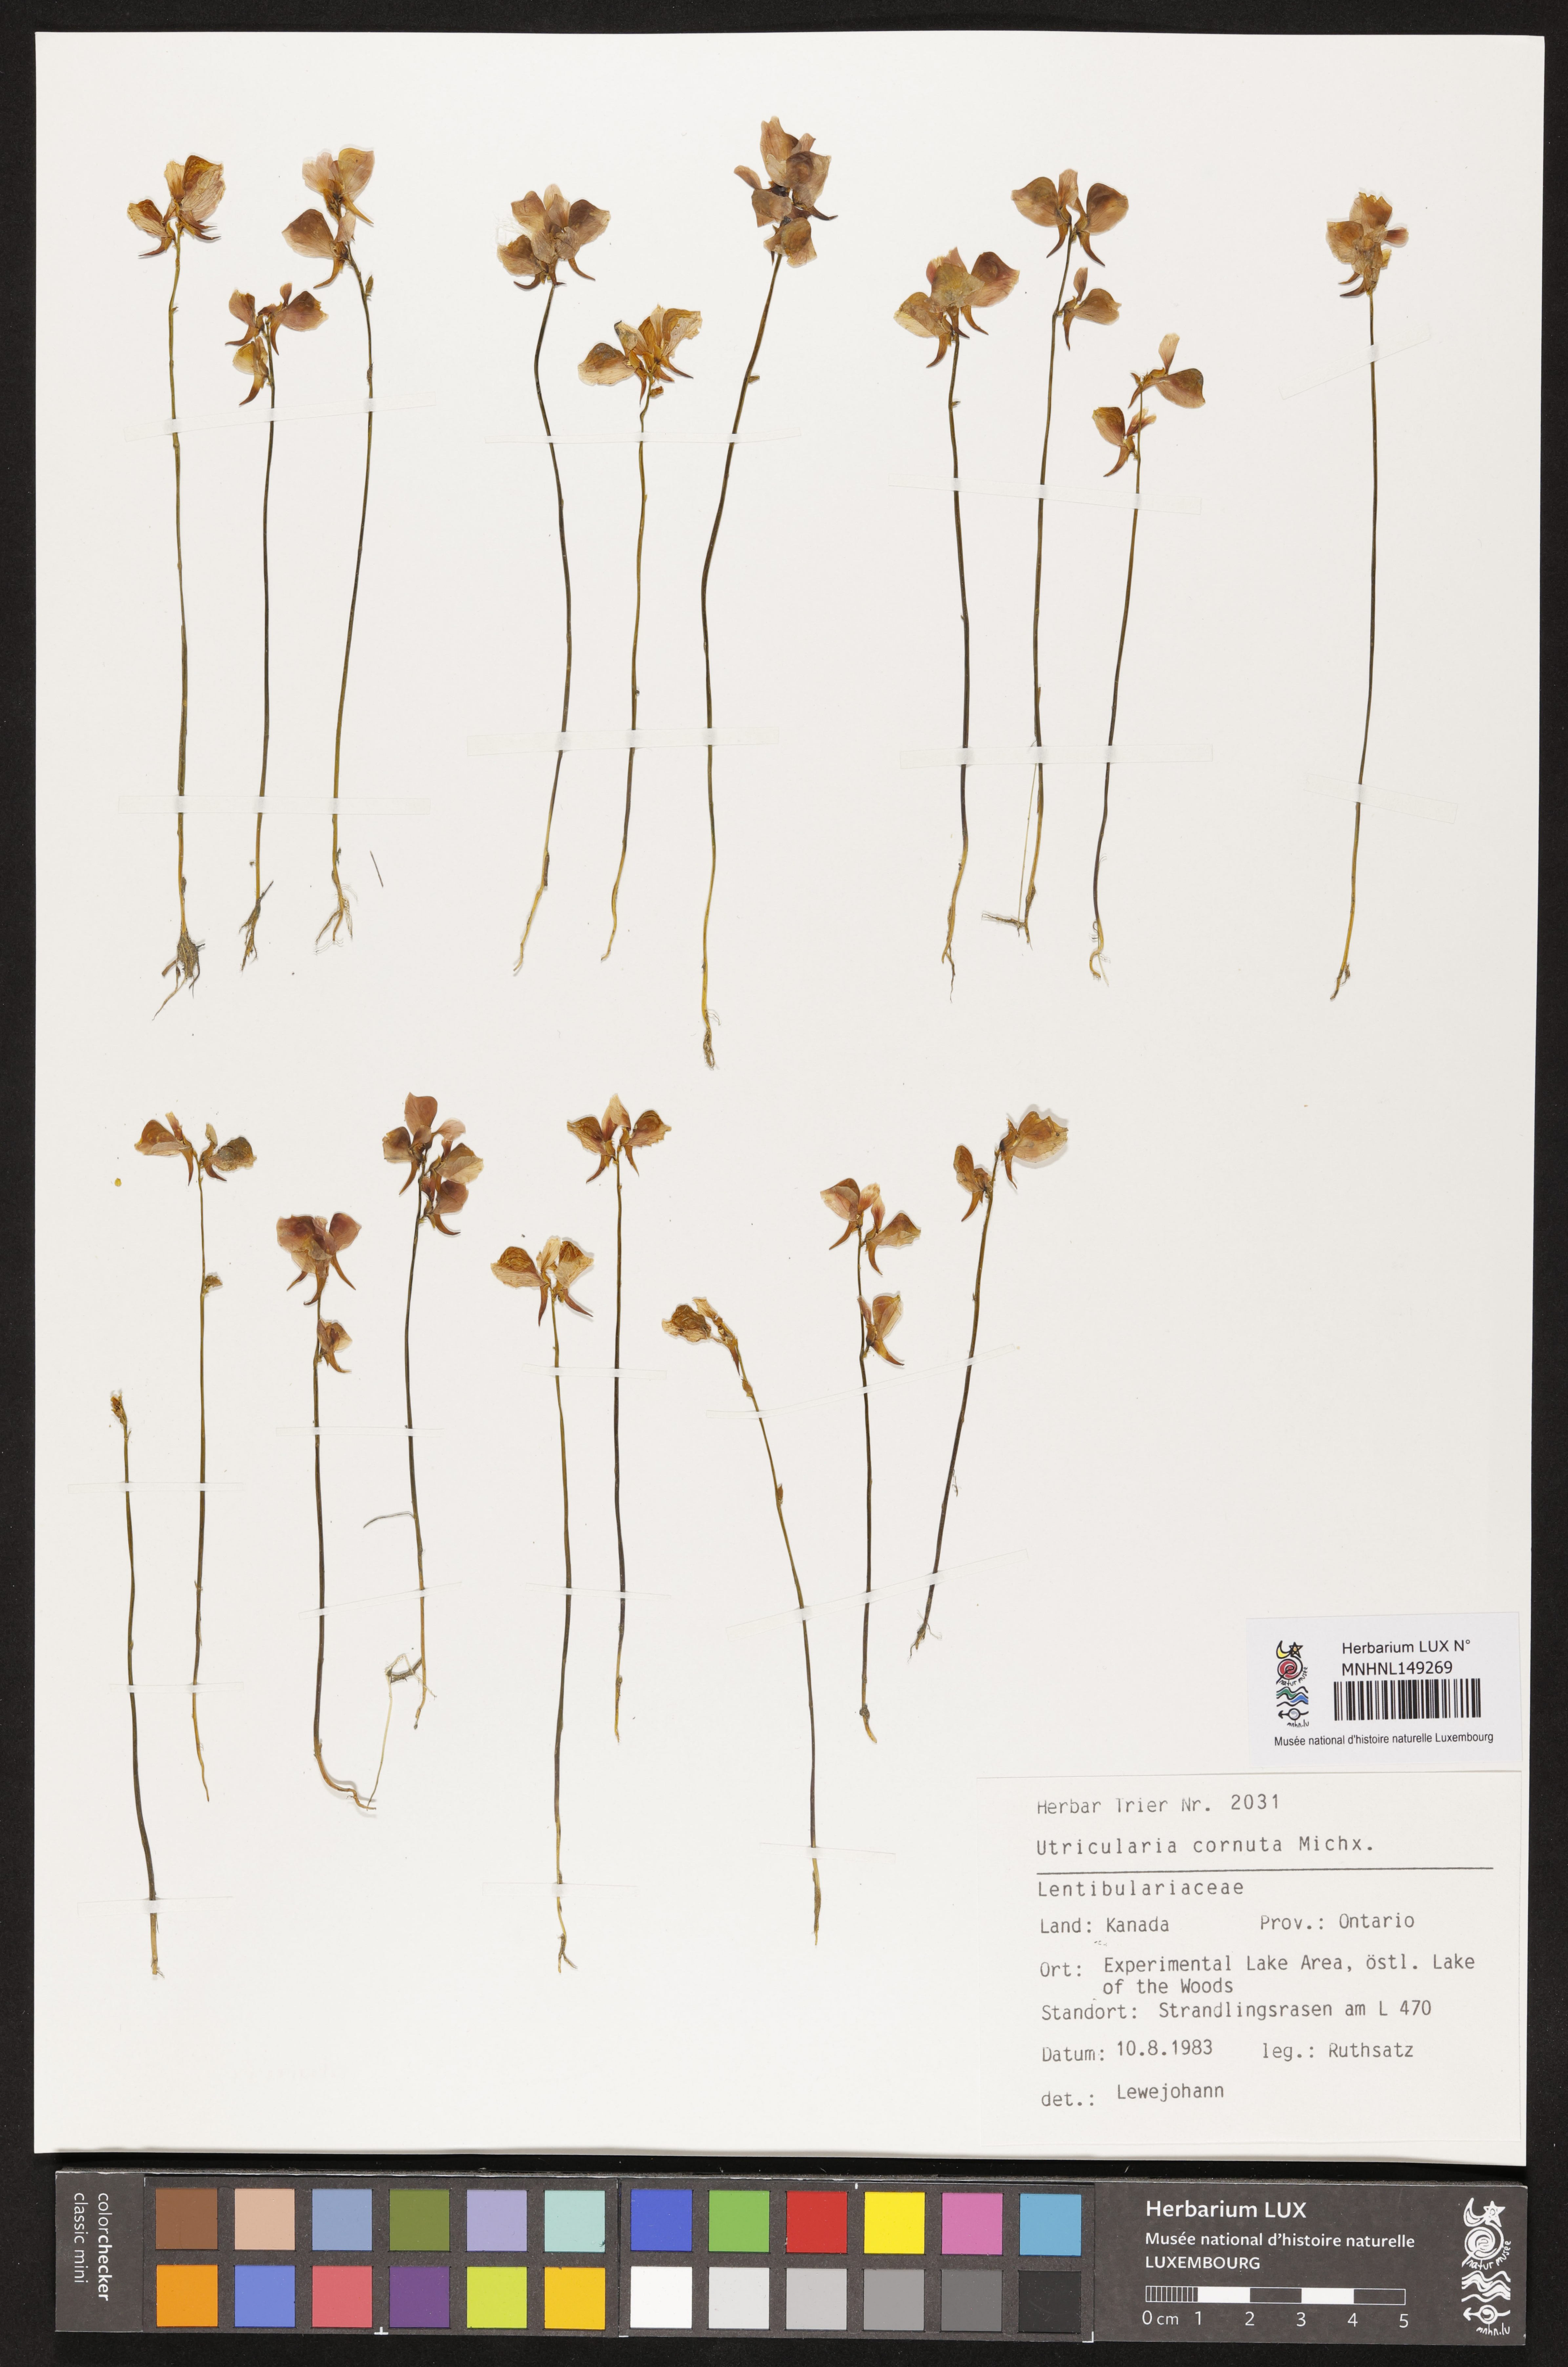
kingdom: Plantae
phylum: Tracheophyta
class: Magnoliopsida
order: Lamiales
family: Lentibulariaceae
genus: Utricularia
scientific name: Utricularia cornuta
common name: Horned bladderwort
